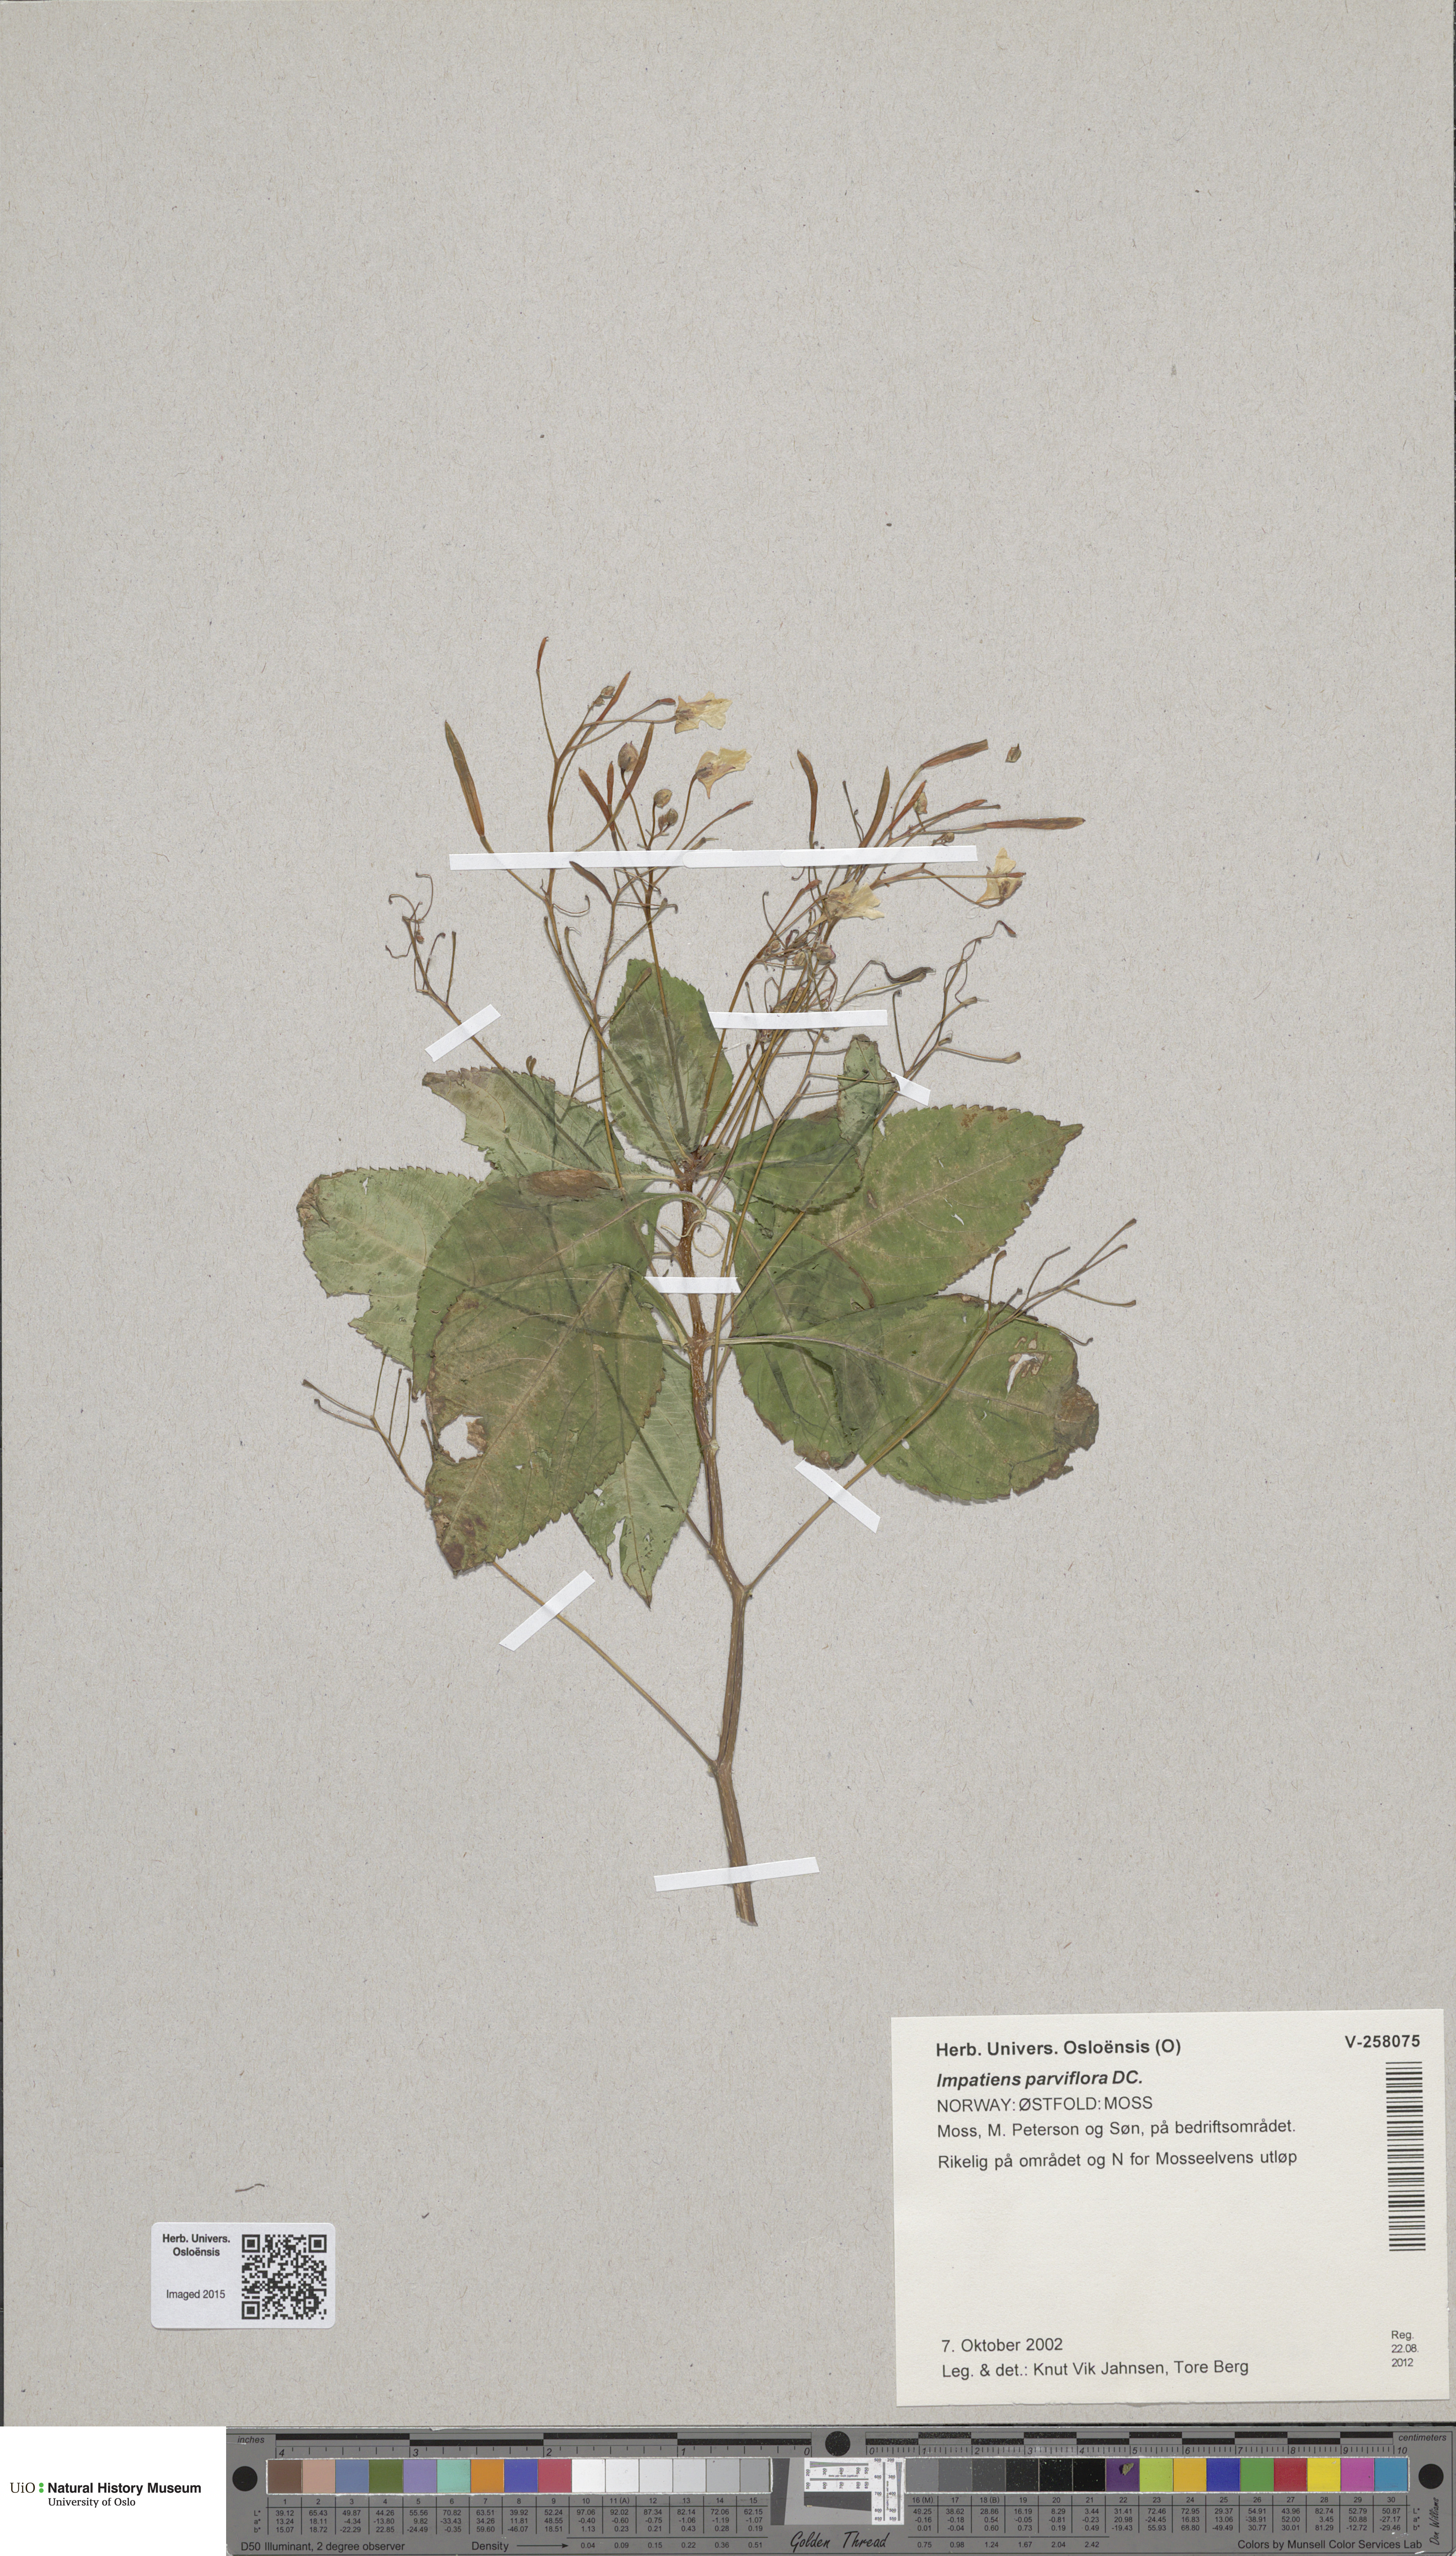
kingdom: Plantae
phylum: Tracheophyta
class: Magnoliopsida
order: Ericales
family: Balsaminaceae
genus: Impatiens
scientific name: Impatiens parviflora
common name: Small balsam
